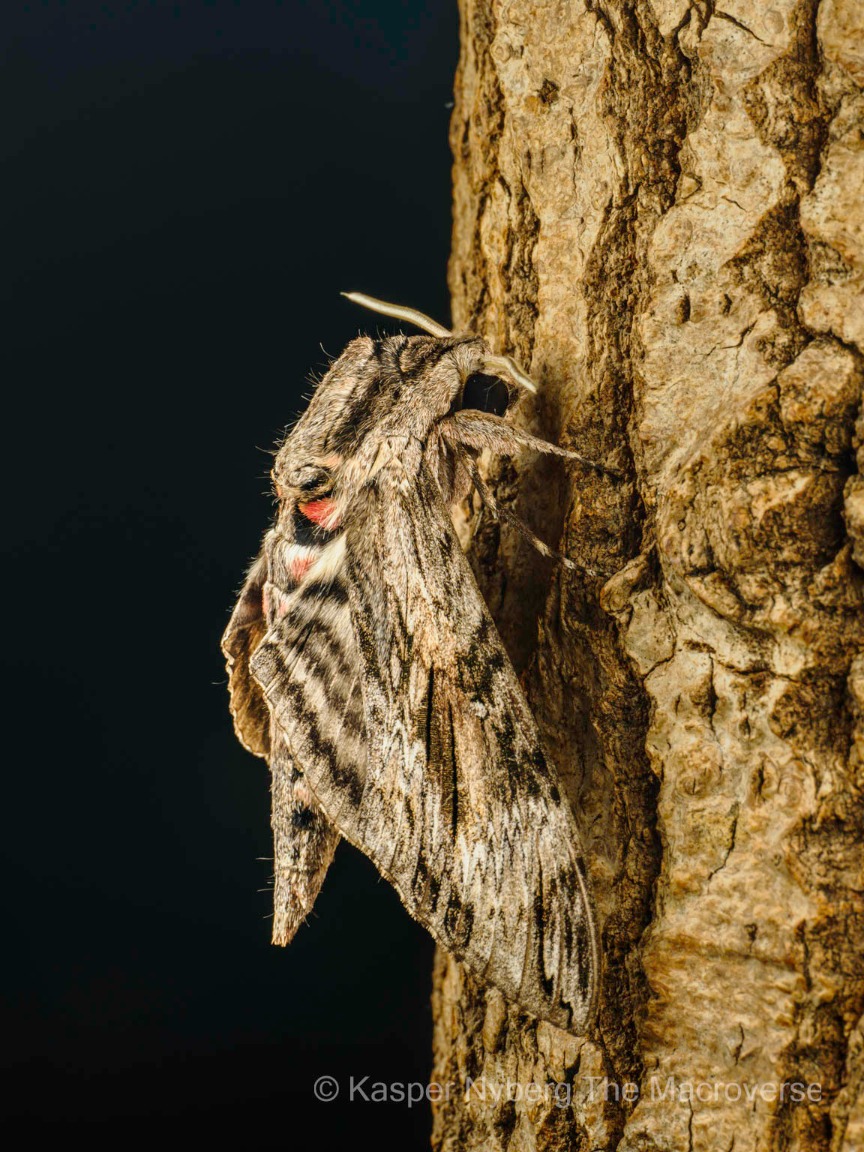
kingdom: Animalia
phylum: Arthropoda
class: Insecta
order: Lepidoptera
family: Sphingidae
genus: Agrius
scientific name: Agrius convolvuli
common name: Snerlesværmer
